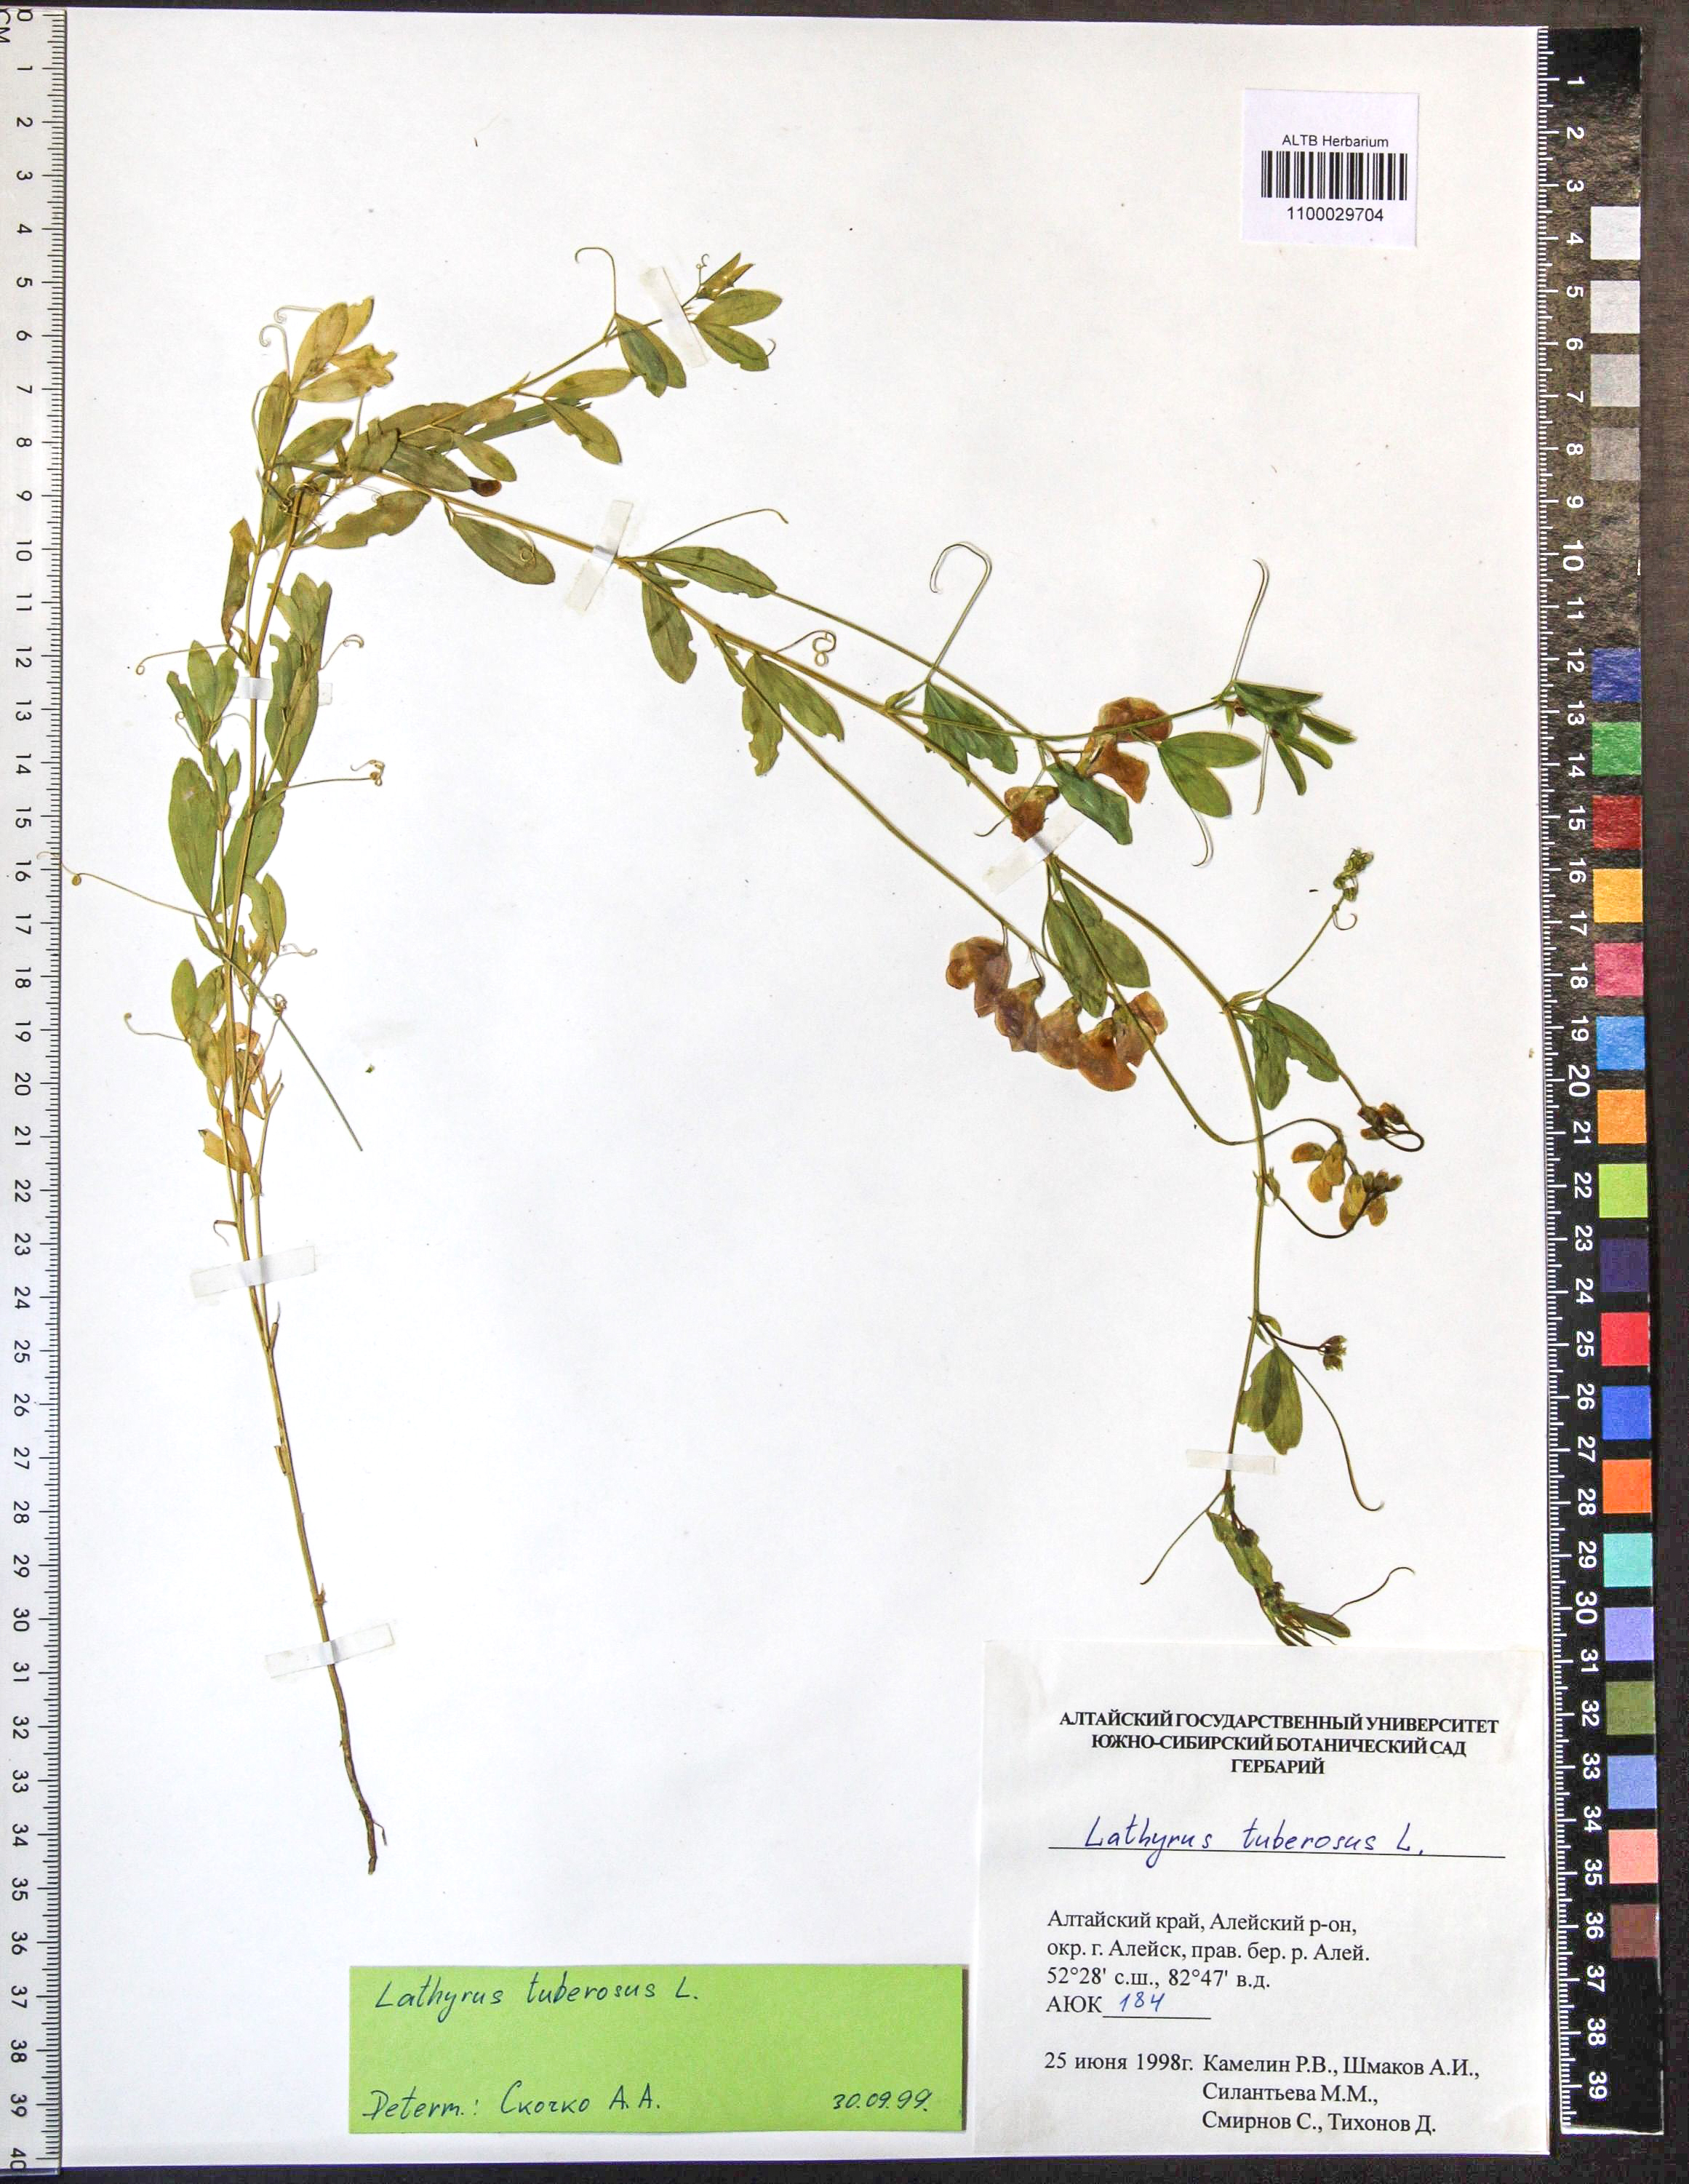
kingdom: Plantae
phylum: Tracheophyta
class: Magnoliopsida
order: Fabales
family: Fabaceae
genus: Lathyrus
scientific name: Lathyrus tuberosus
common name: Tuberous pea
